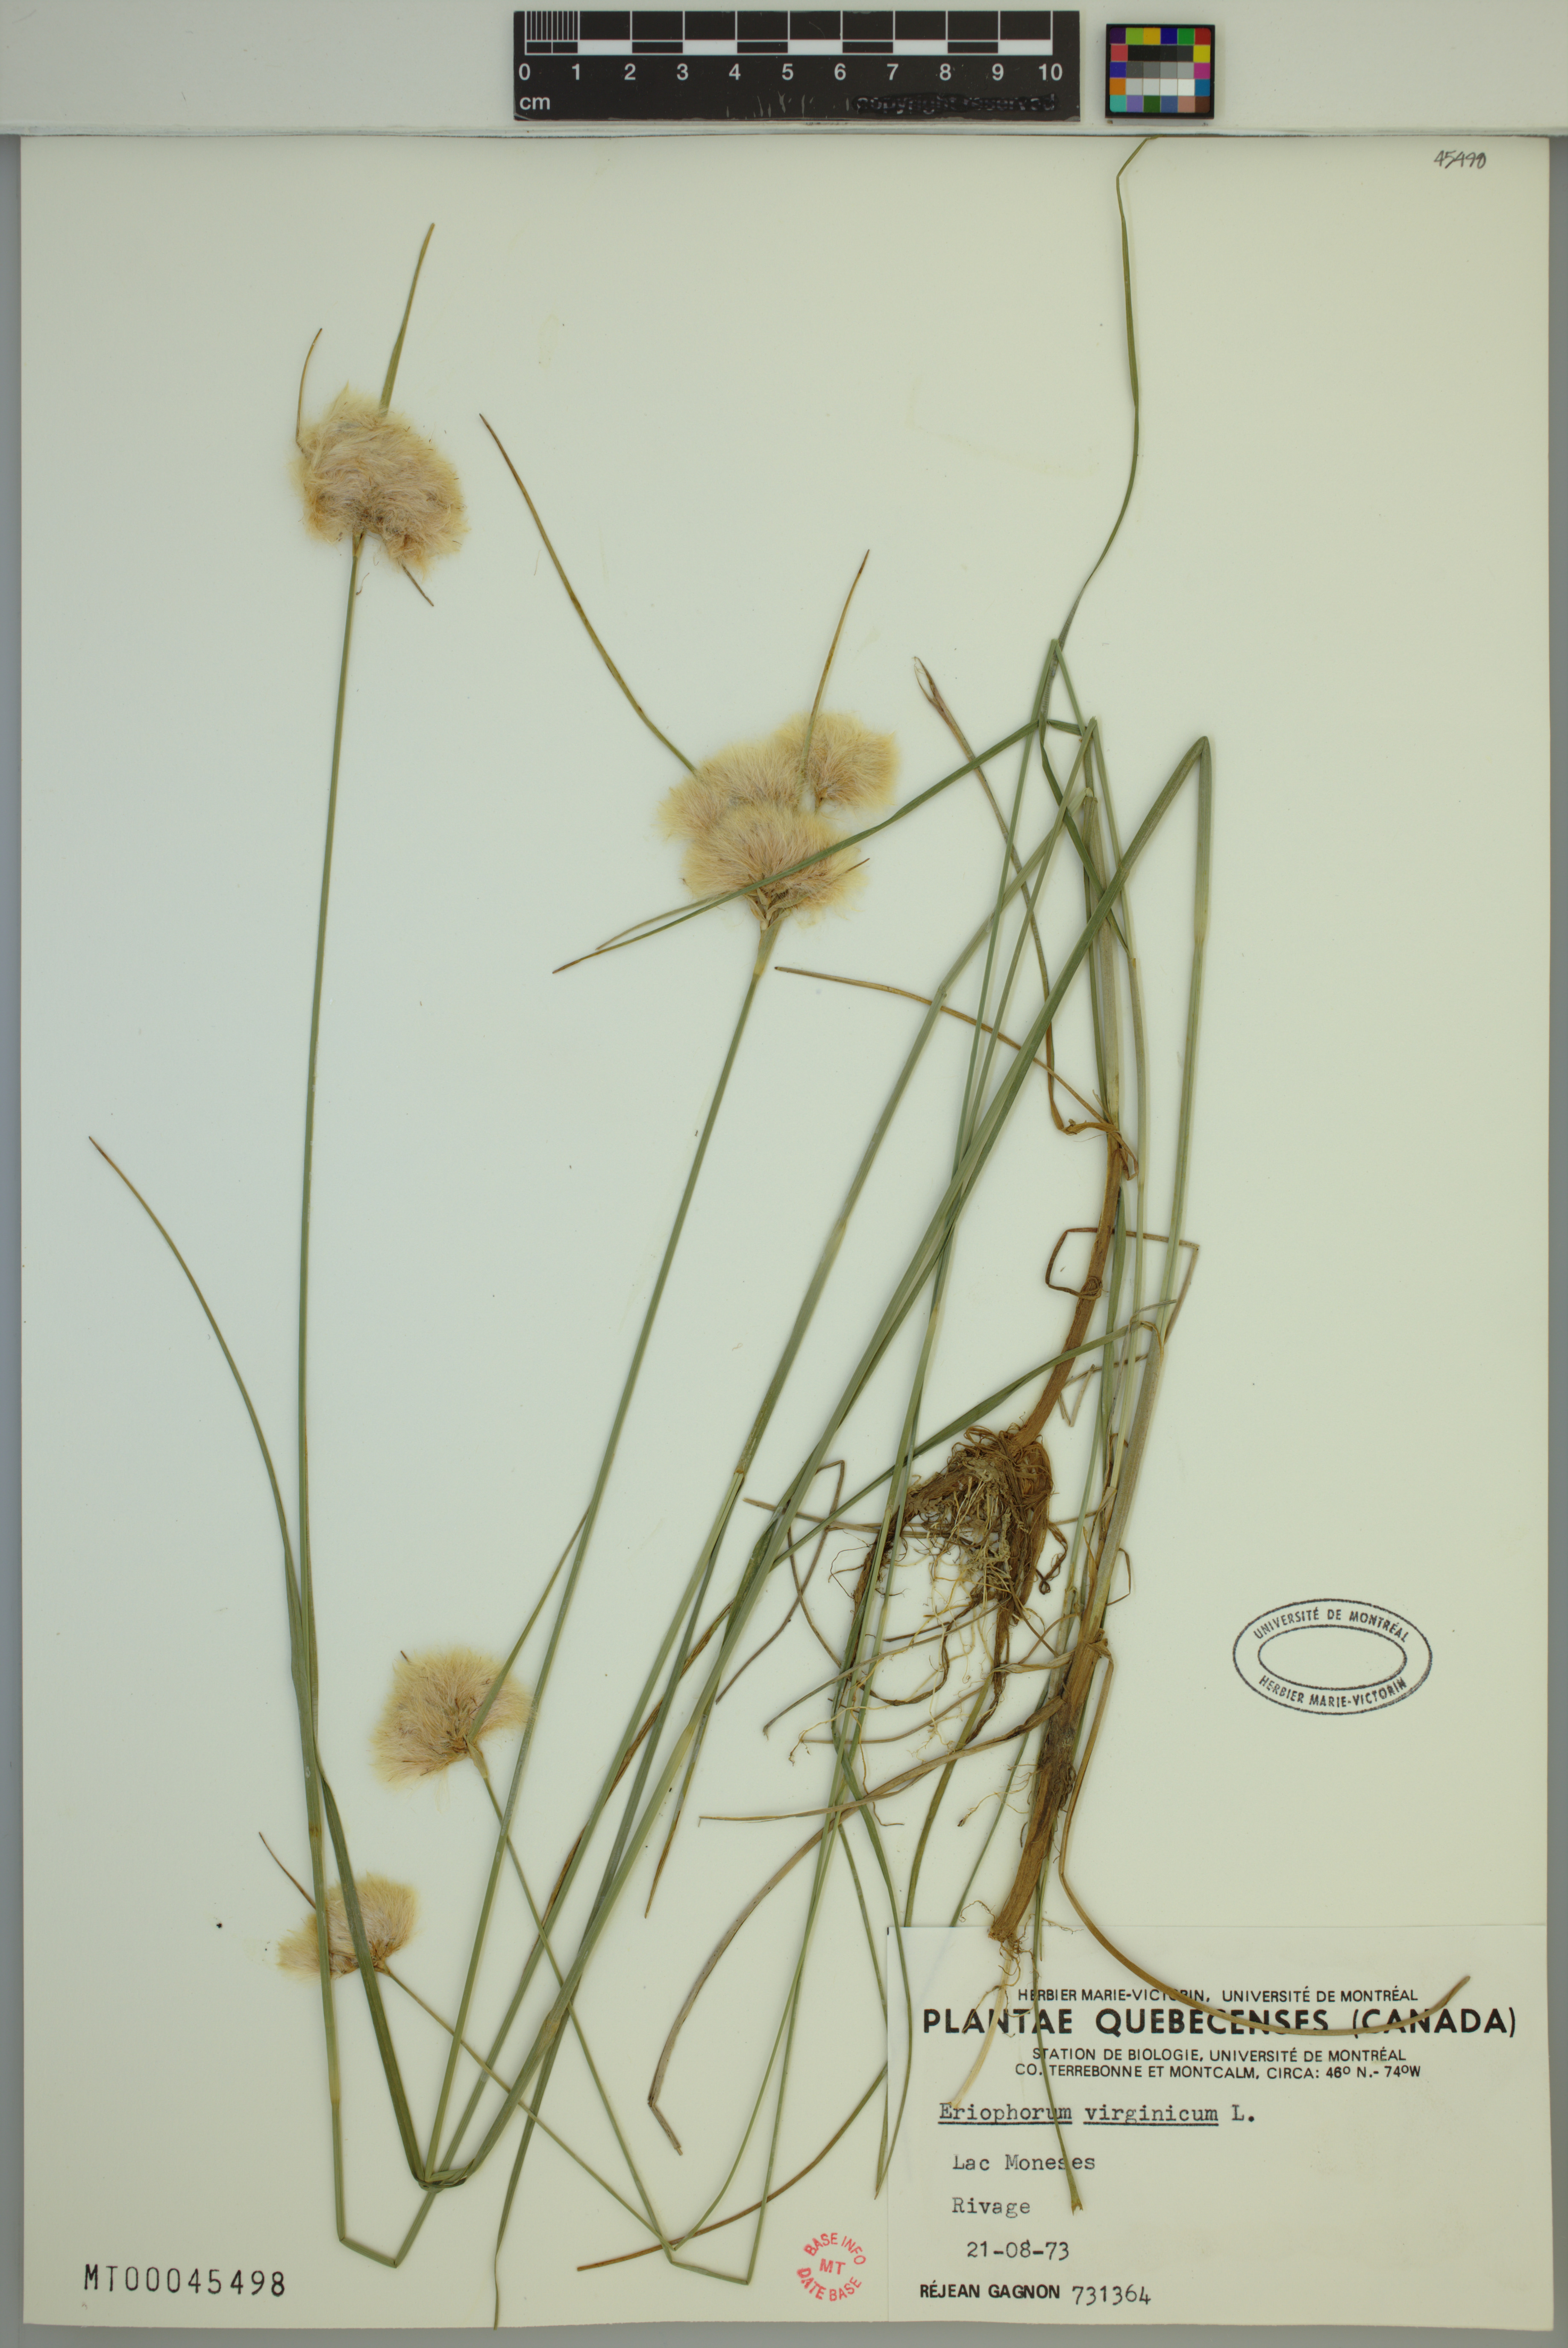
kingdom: Plantae
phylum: Tracheophyta
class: Liliopsida
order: Poales
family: Cyperaceae
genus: Eriophorum
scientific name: Eriophorum virginicum
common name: Tawny cottongrass
